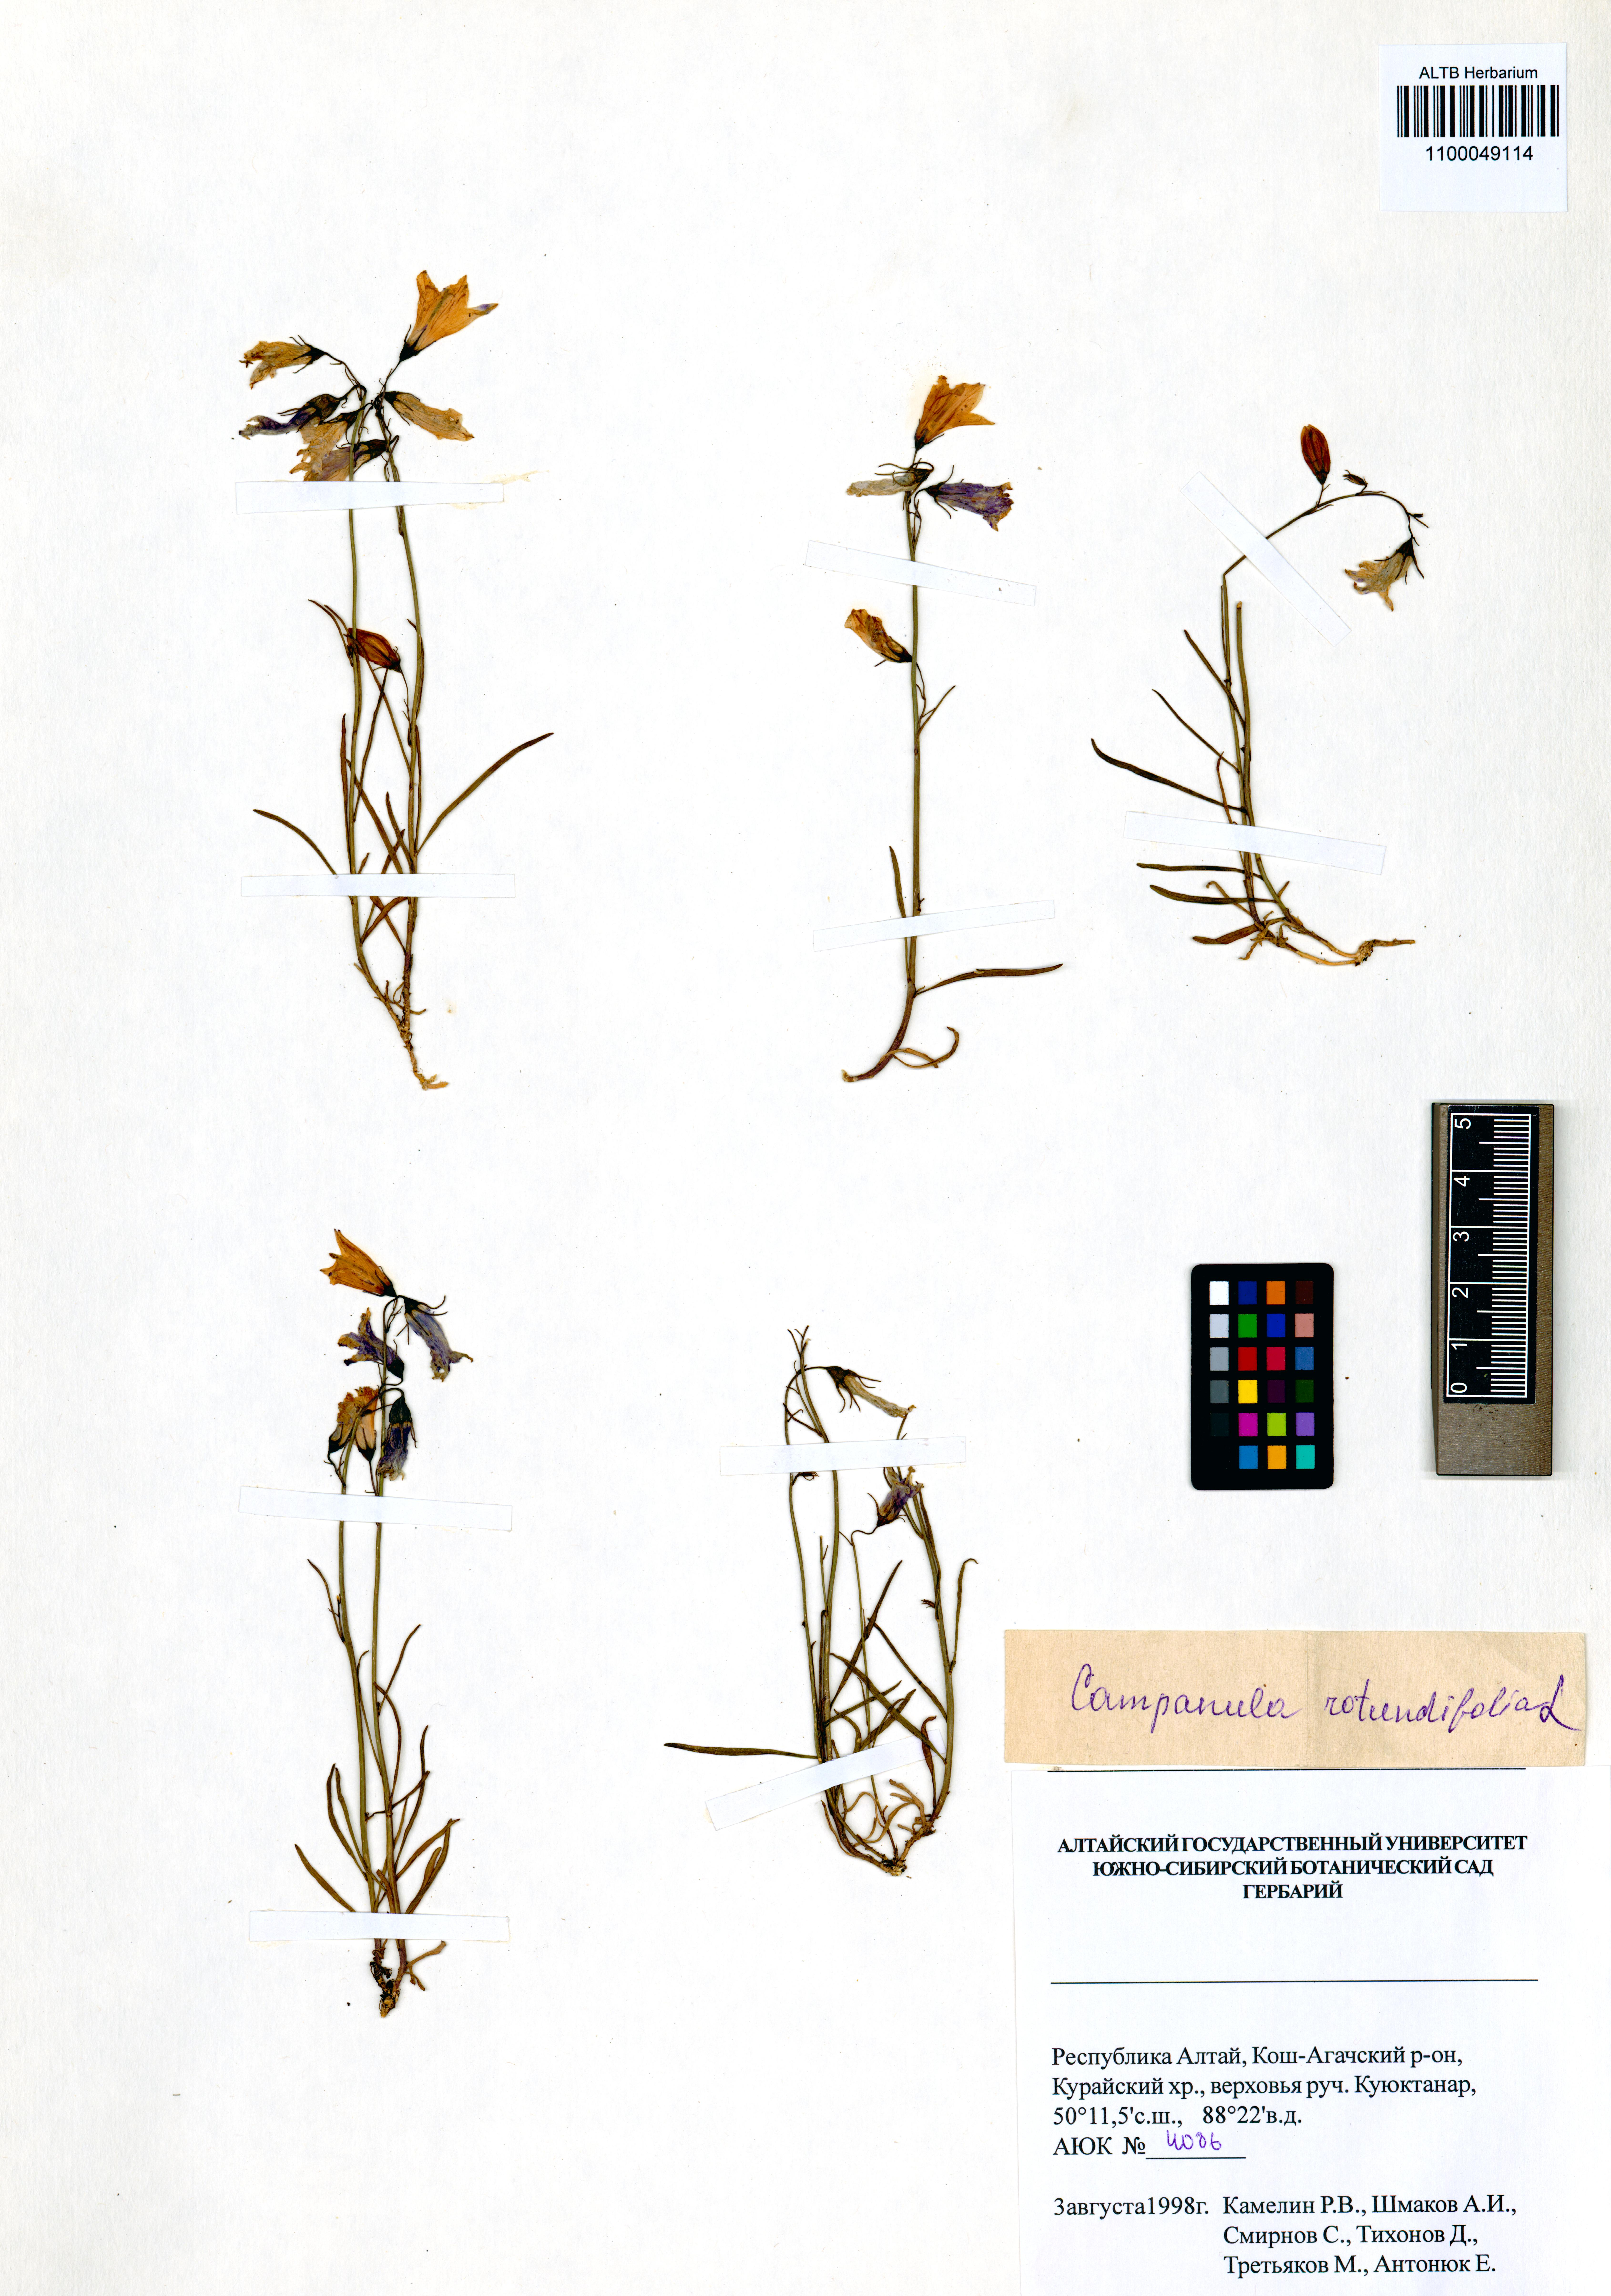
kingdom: Plantae
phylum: Tracheophyta
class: Magnoliopsida
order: Asterales
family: Campanulaceae
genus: Campanula
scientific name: Campanula rotundifolia
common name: Harebell
